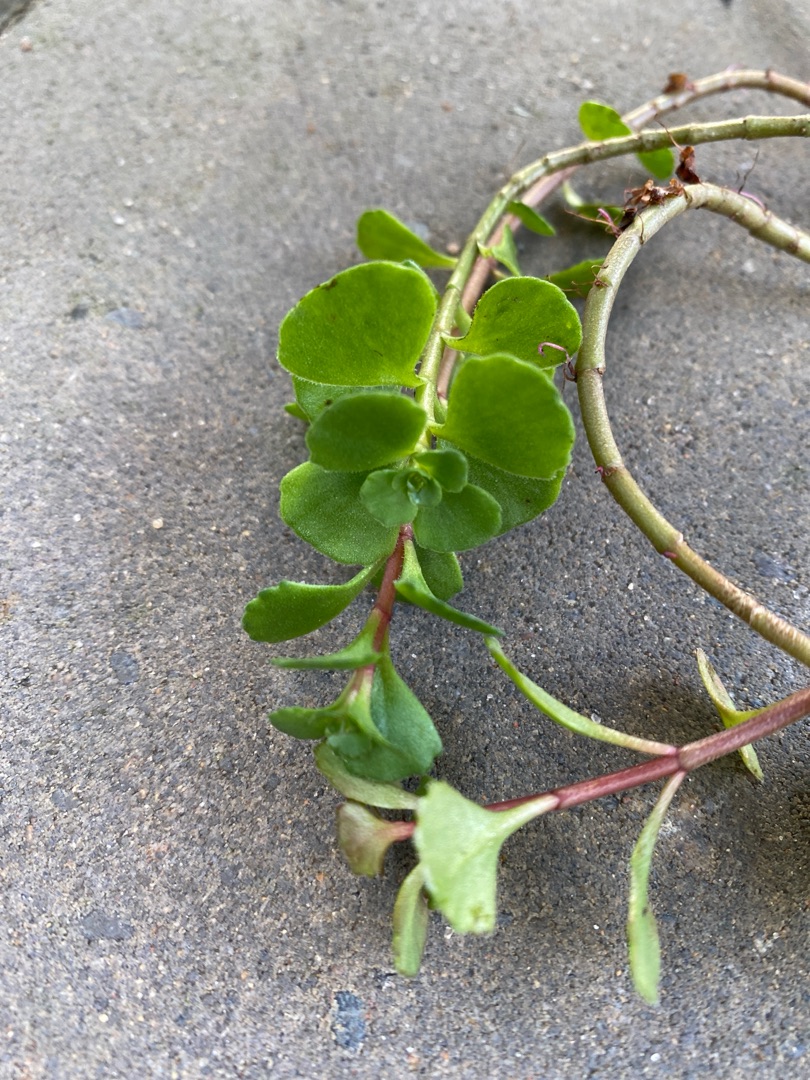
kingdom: Plantae
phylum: Tracheophyta
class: Magnoliopsida
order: Saxifragales
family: Crassulaceae
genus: Phedimus
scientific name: Phedimus spurius
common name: Rød stenurt
